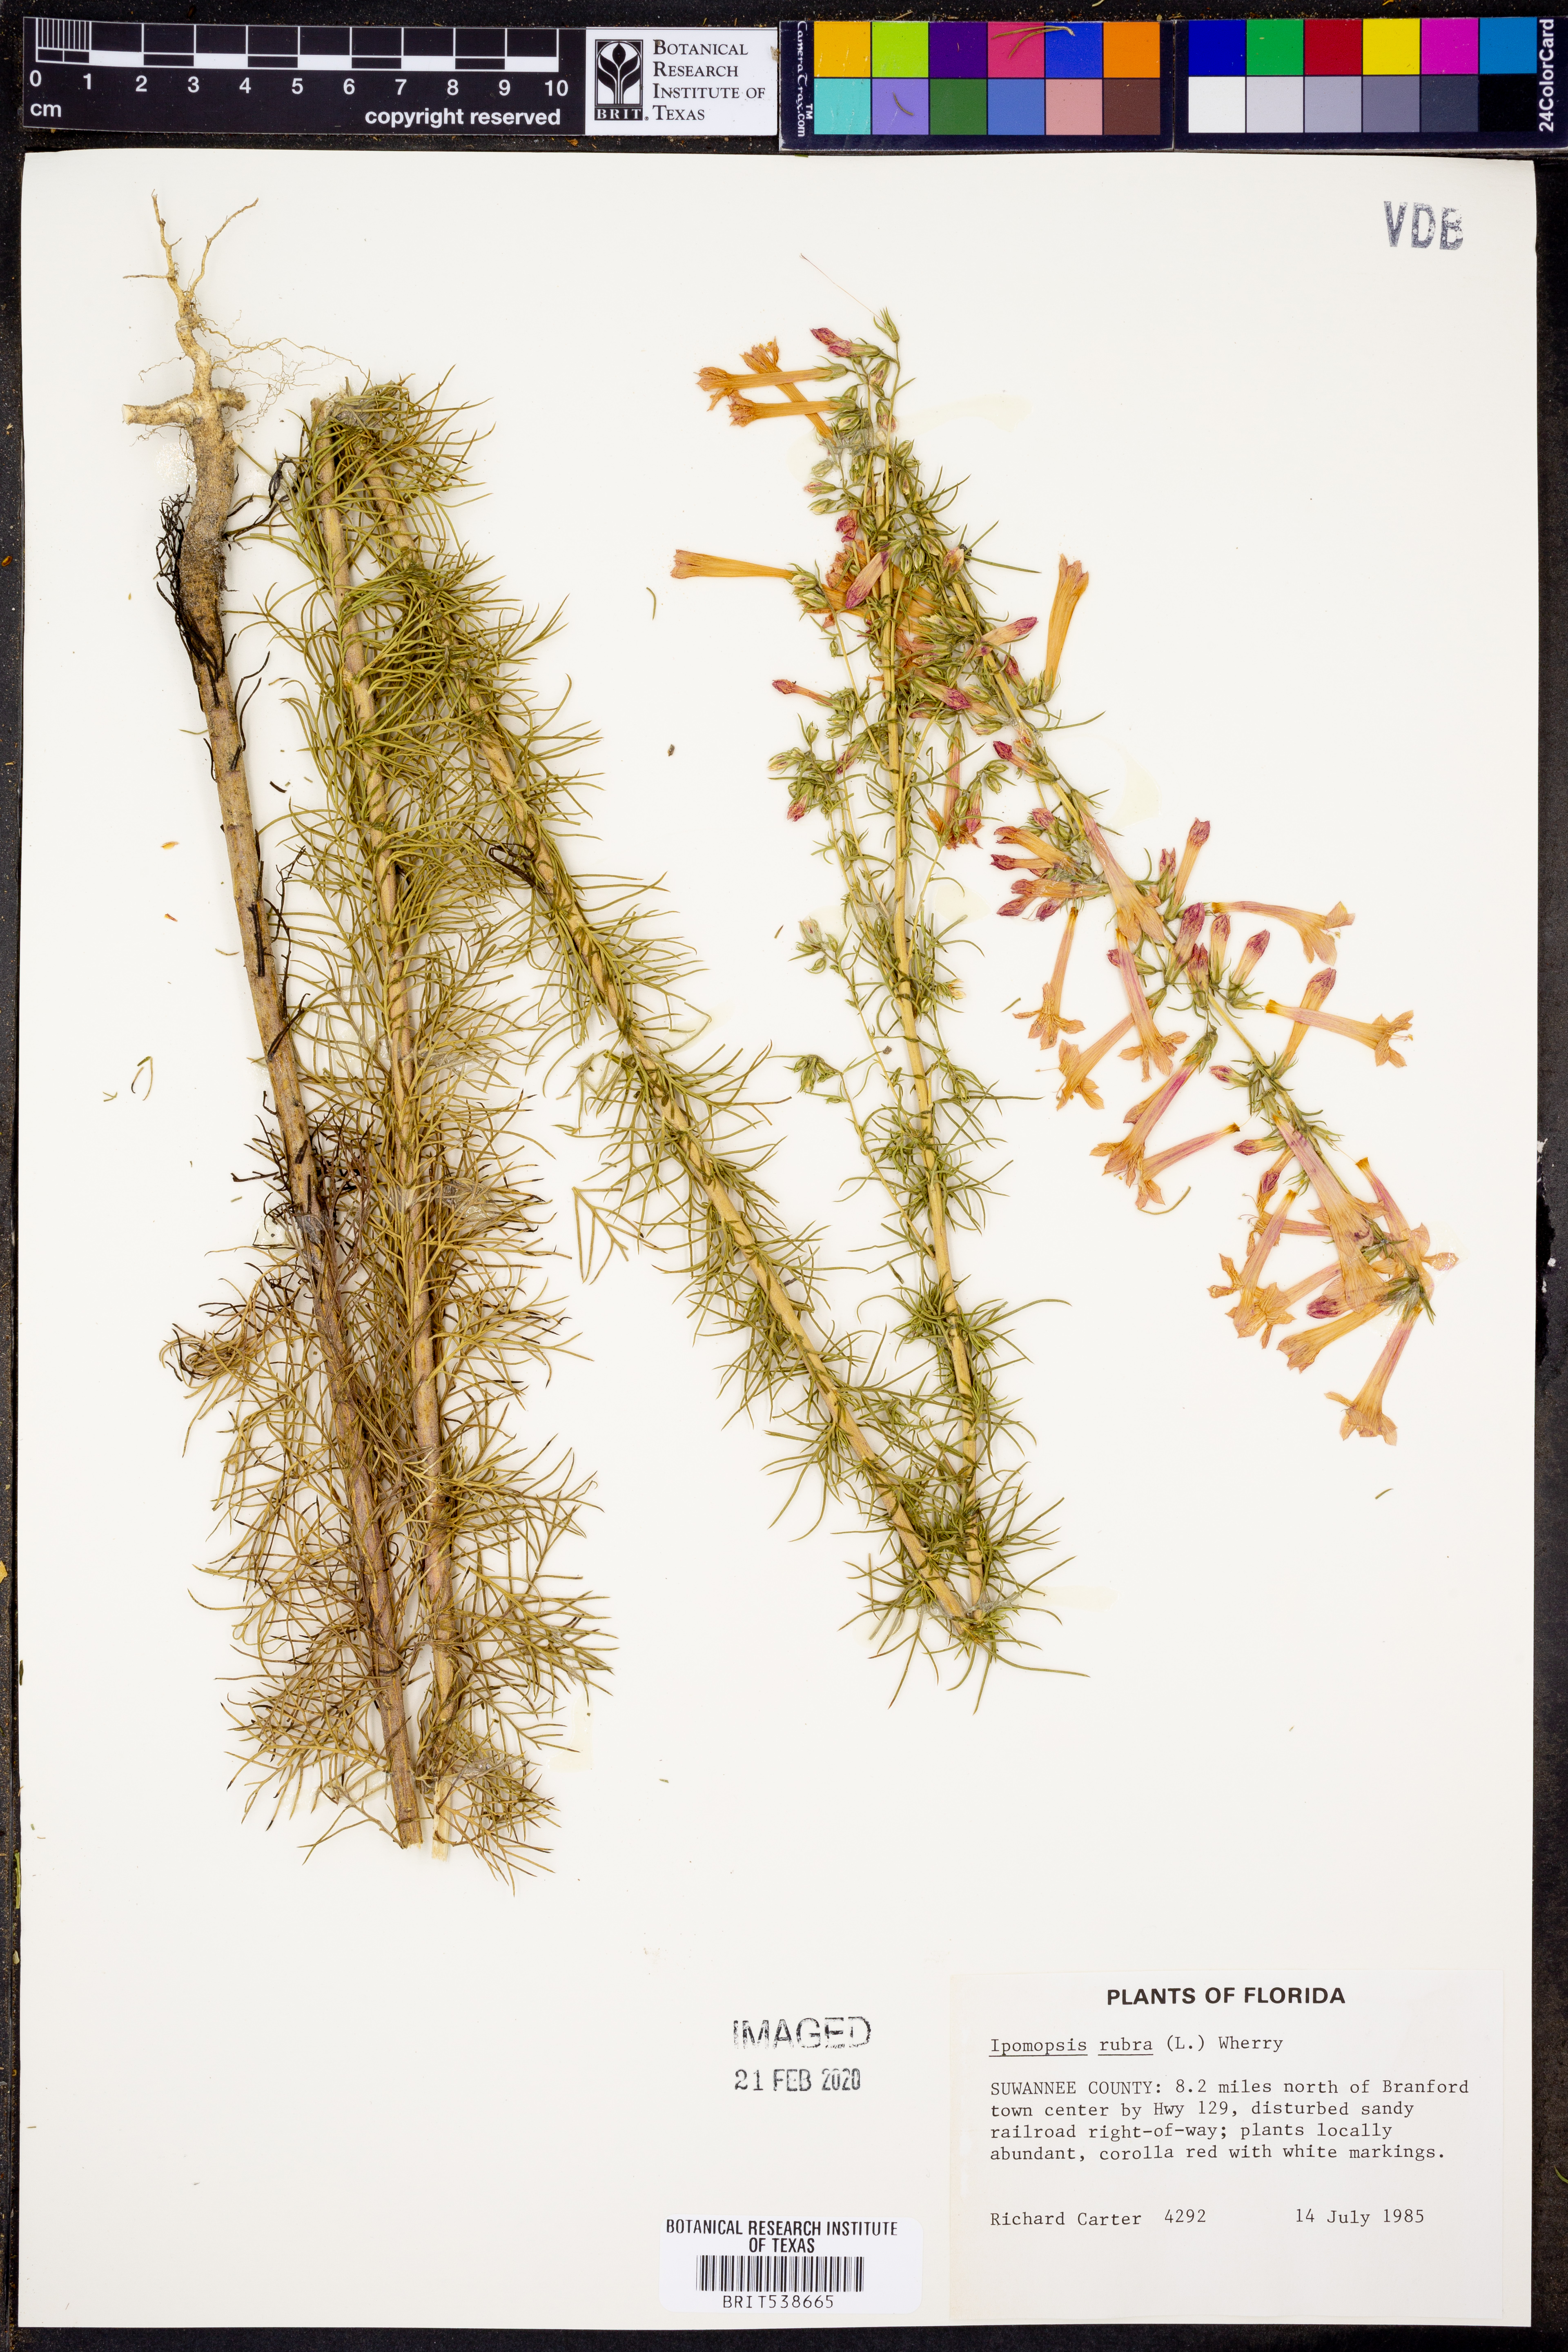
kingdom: Plantae
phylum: Tracheophyta
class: Magnoliopsida
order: Ericales
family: Polemoniaceae
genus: Ipomopsis
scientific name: Ipomopsis rubra
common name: Skyrocket
